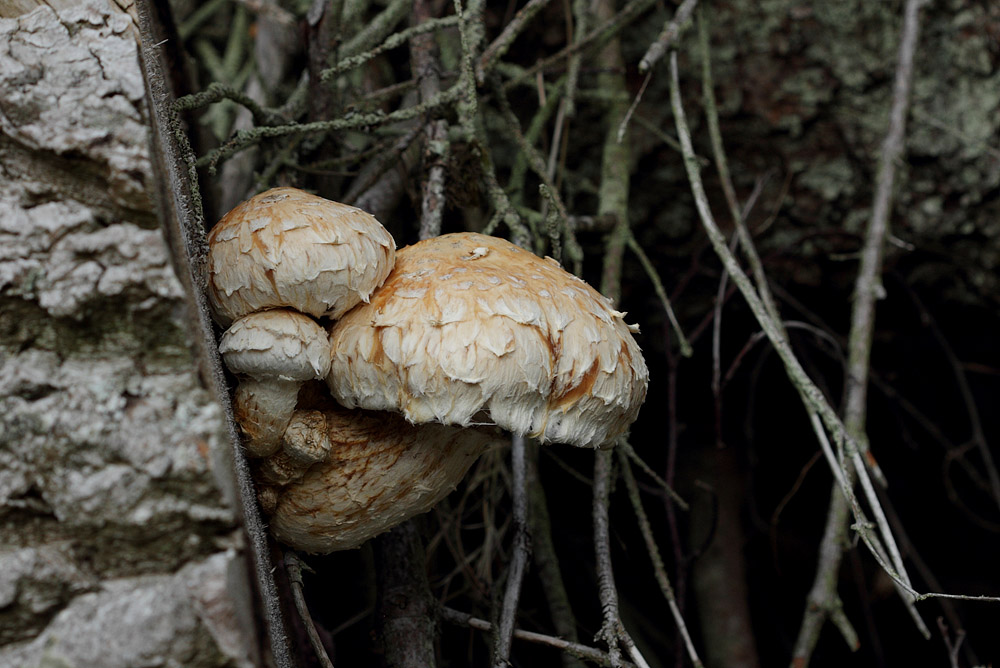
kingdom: Fungi
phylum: Basidiomycota
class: Agaricomycetes
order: Agaricales
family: Strophariaceae
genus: Pholiota
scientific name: Pholiota populnea
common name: poppel-kæmpeskælhat
